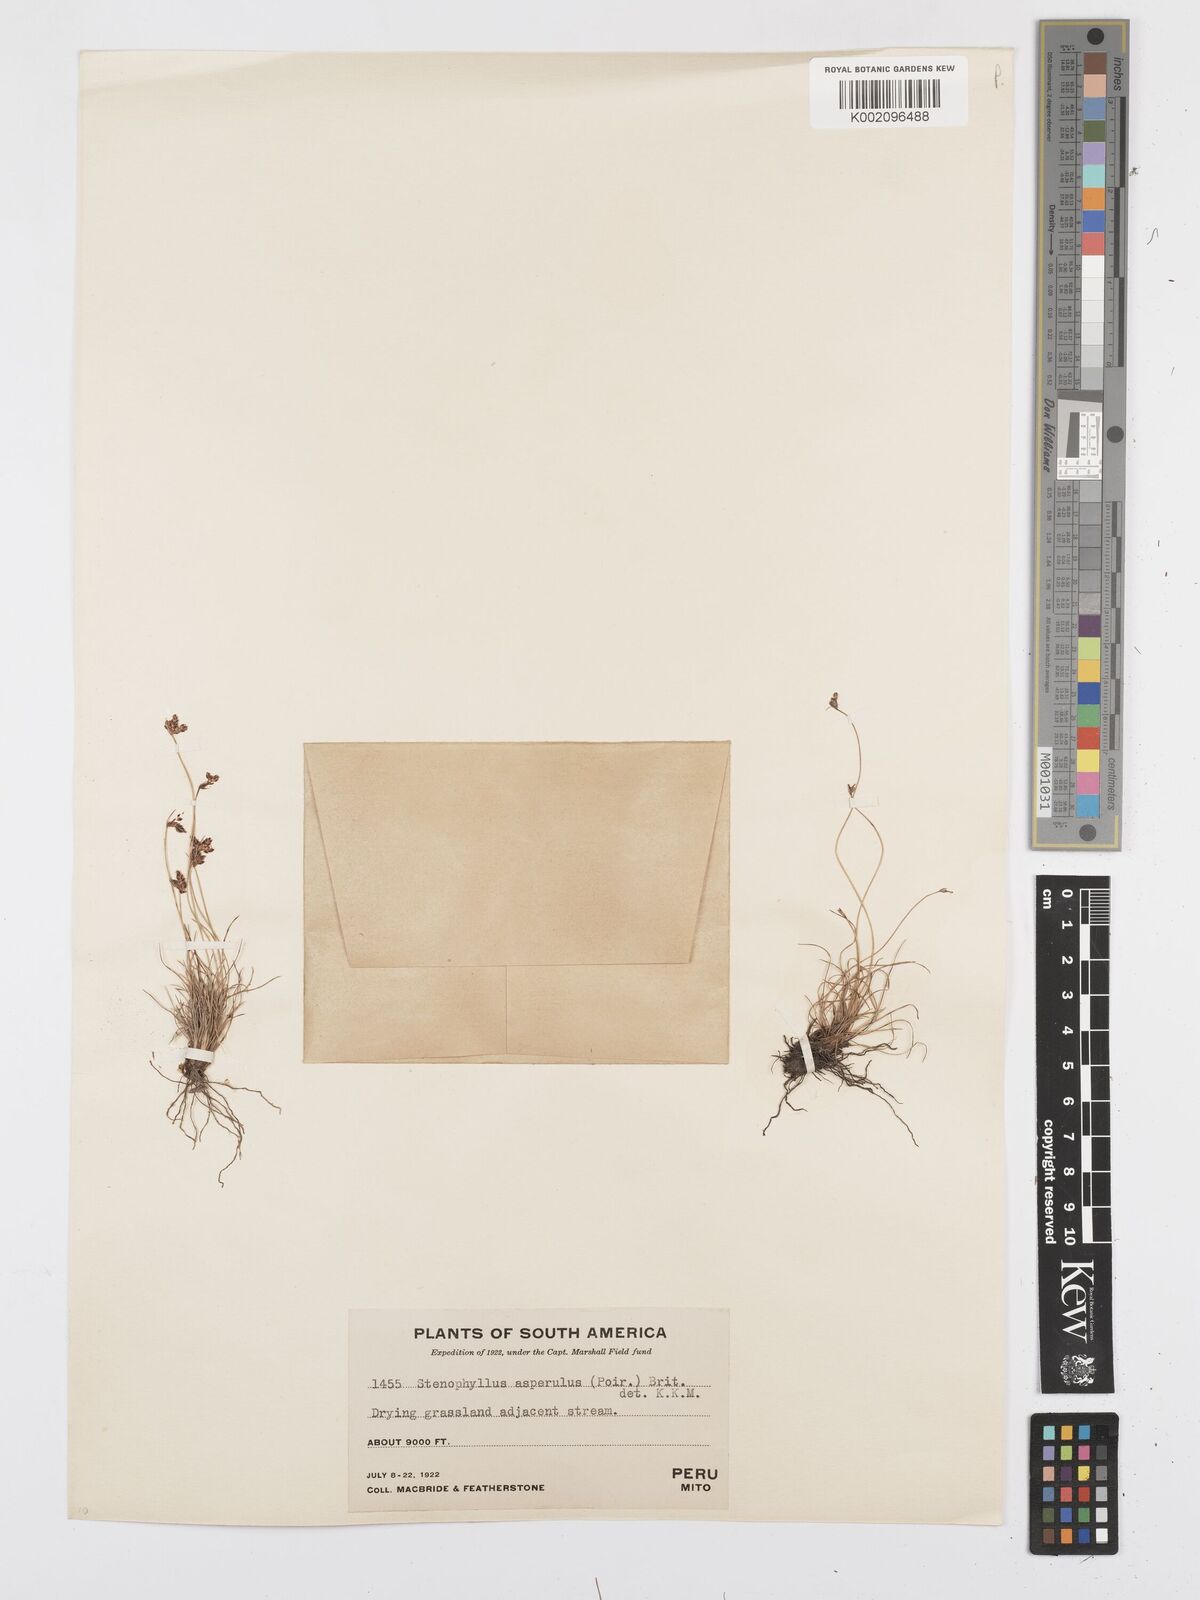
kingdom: Plantae
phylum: Tracheophyta
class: Liliopsida
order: Poales
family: Cyperaceae
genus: Bulbostylis
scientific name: Bulbostylis asperula
